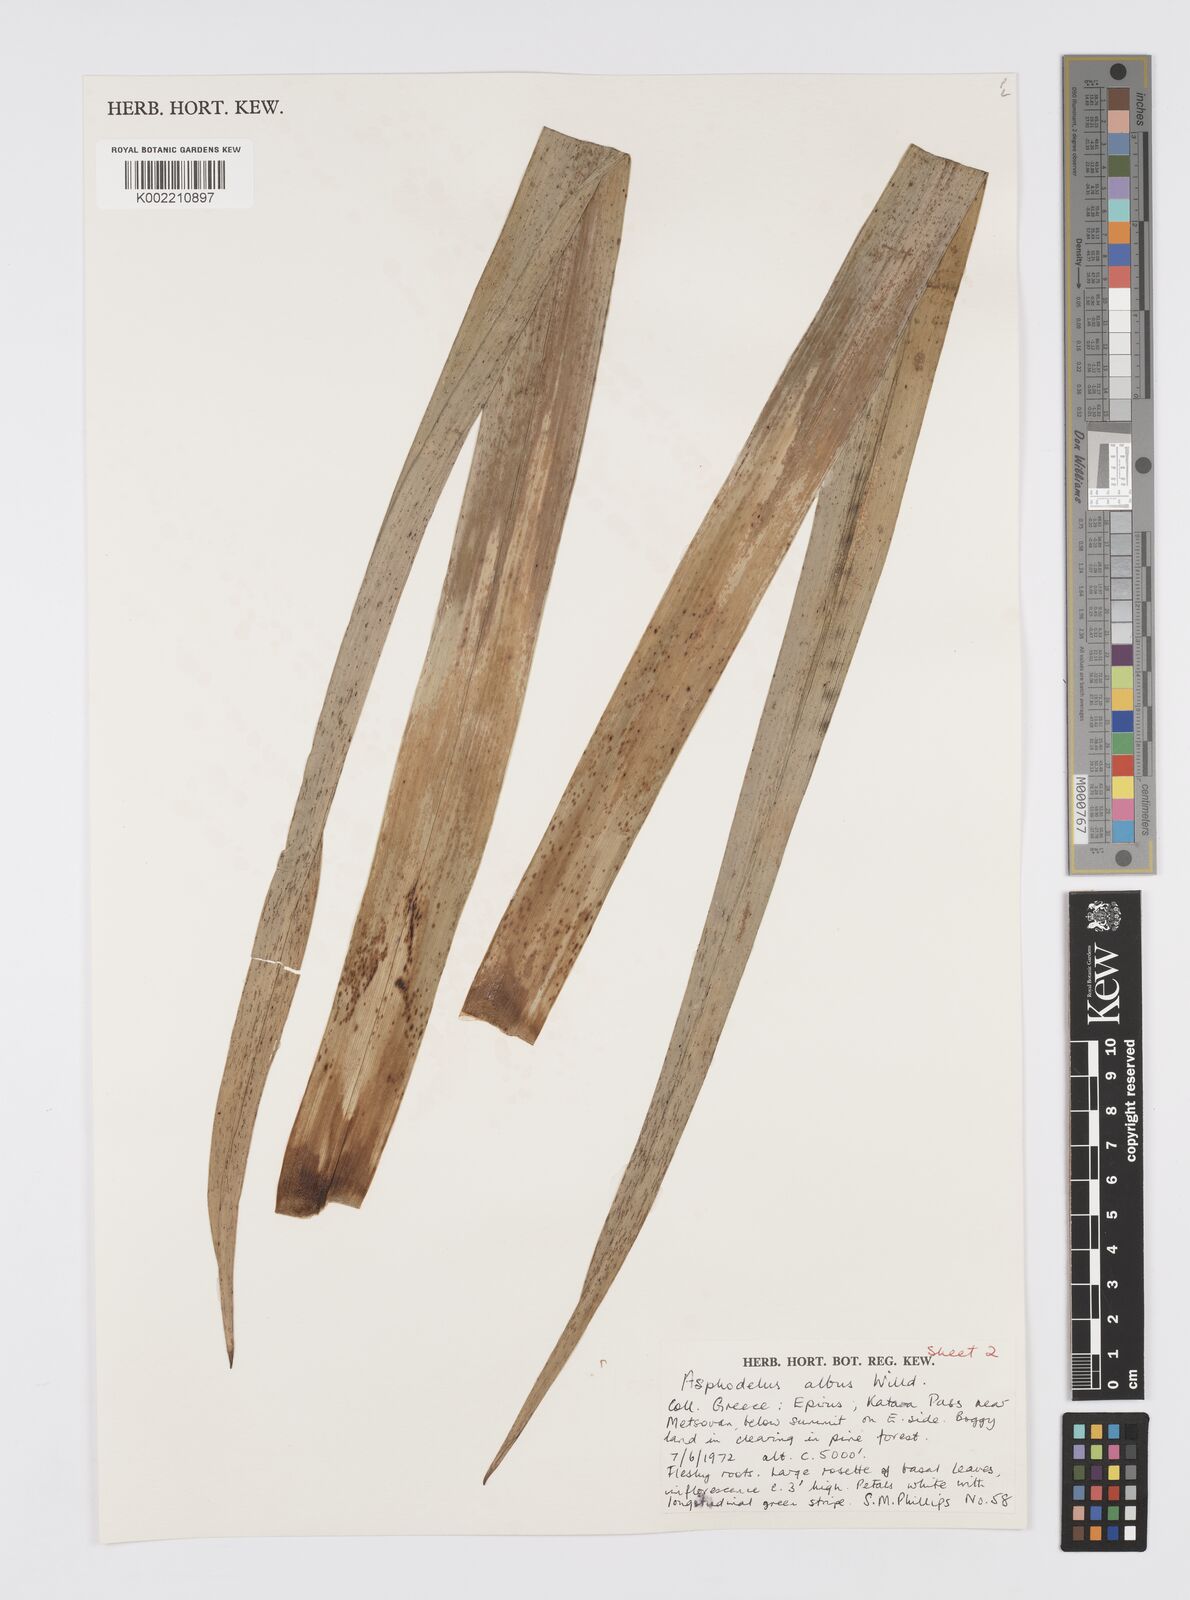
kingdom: Plantae
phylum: Tracheophyta
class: Liliopsida
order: Asparagales
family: Asphodelaceae
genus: Asphodelus
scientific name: Asphodelus albus
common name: White asphodel
